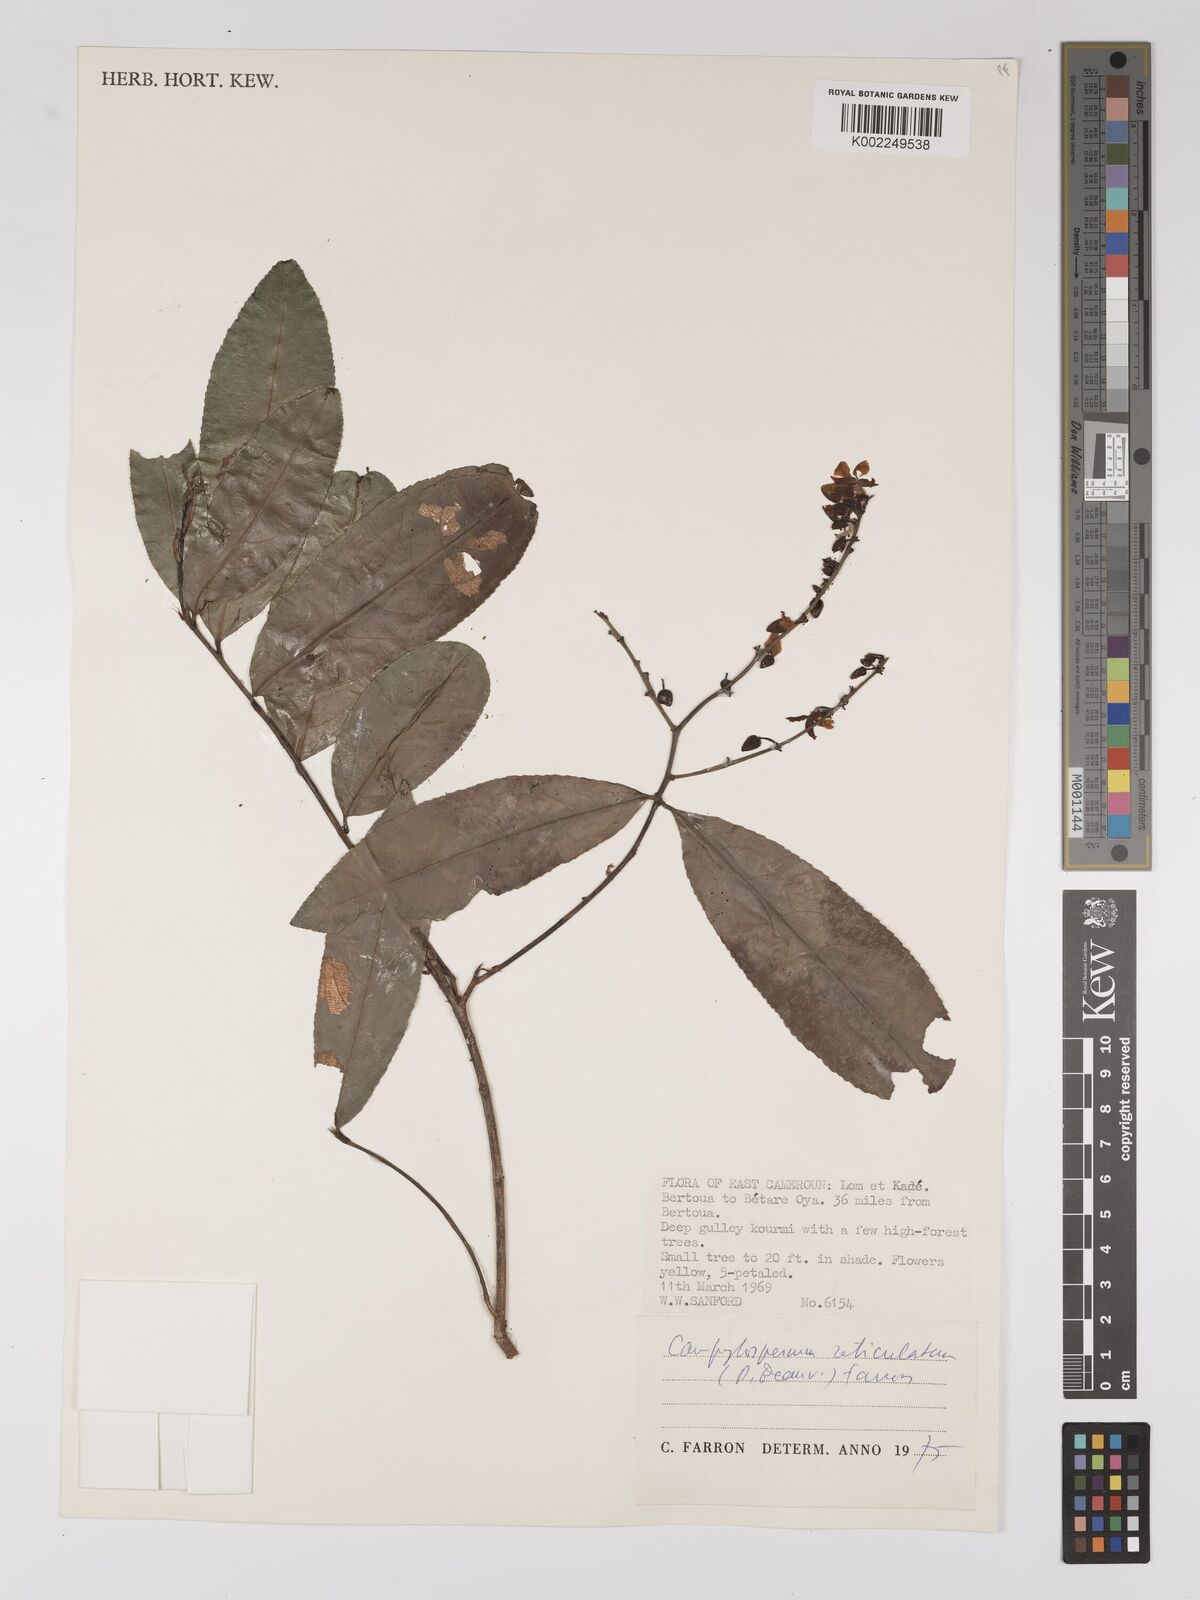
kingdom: Plantae
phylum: Tracheophyta
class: Magnoliopsida
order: Malpighiales
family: Ochnaceae
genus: Campylospermum
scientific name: Campylospermum reticulatum
